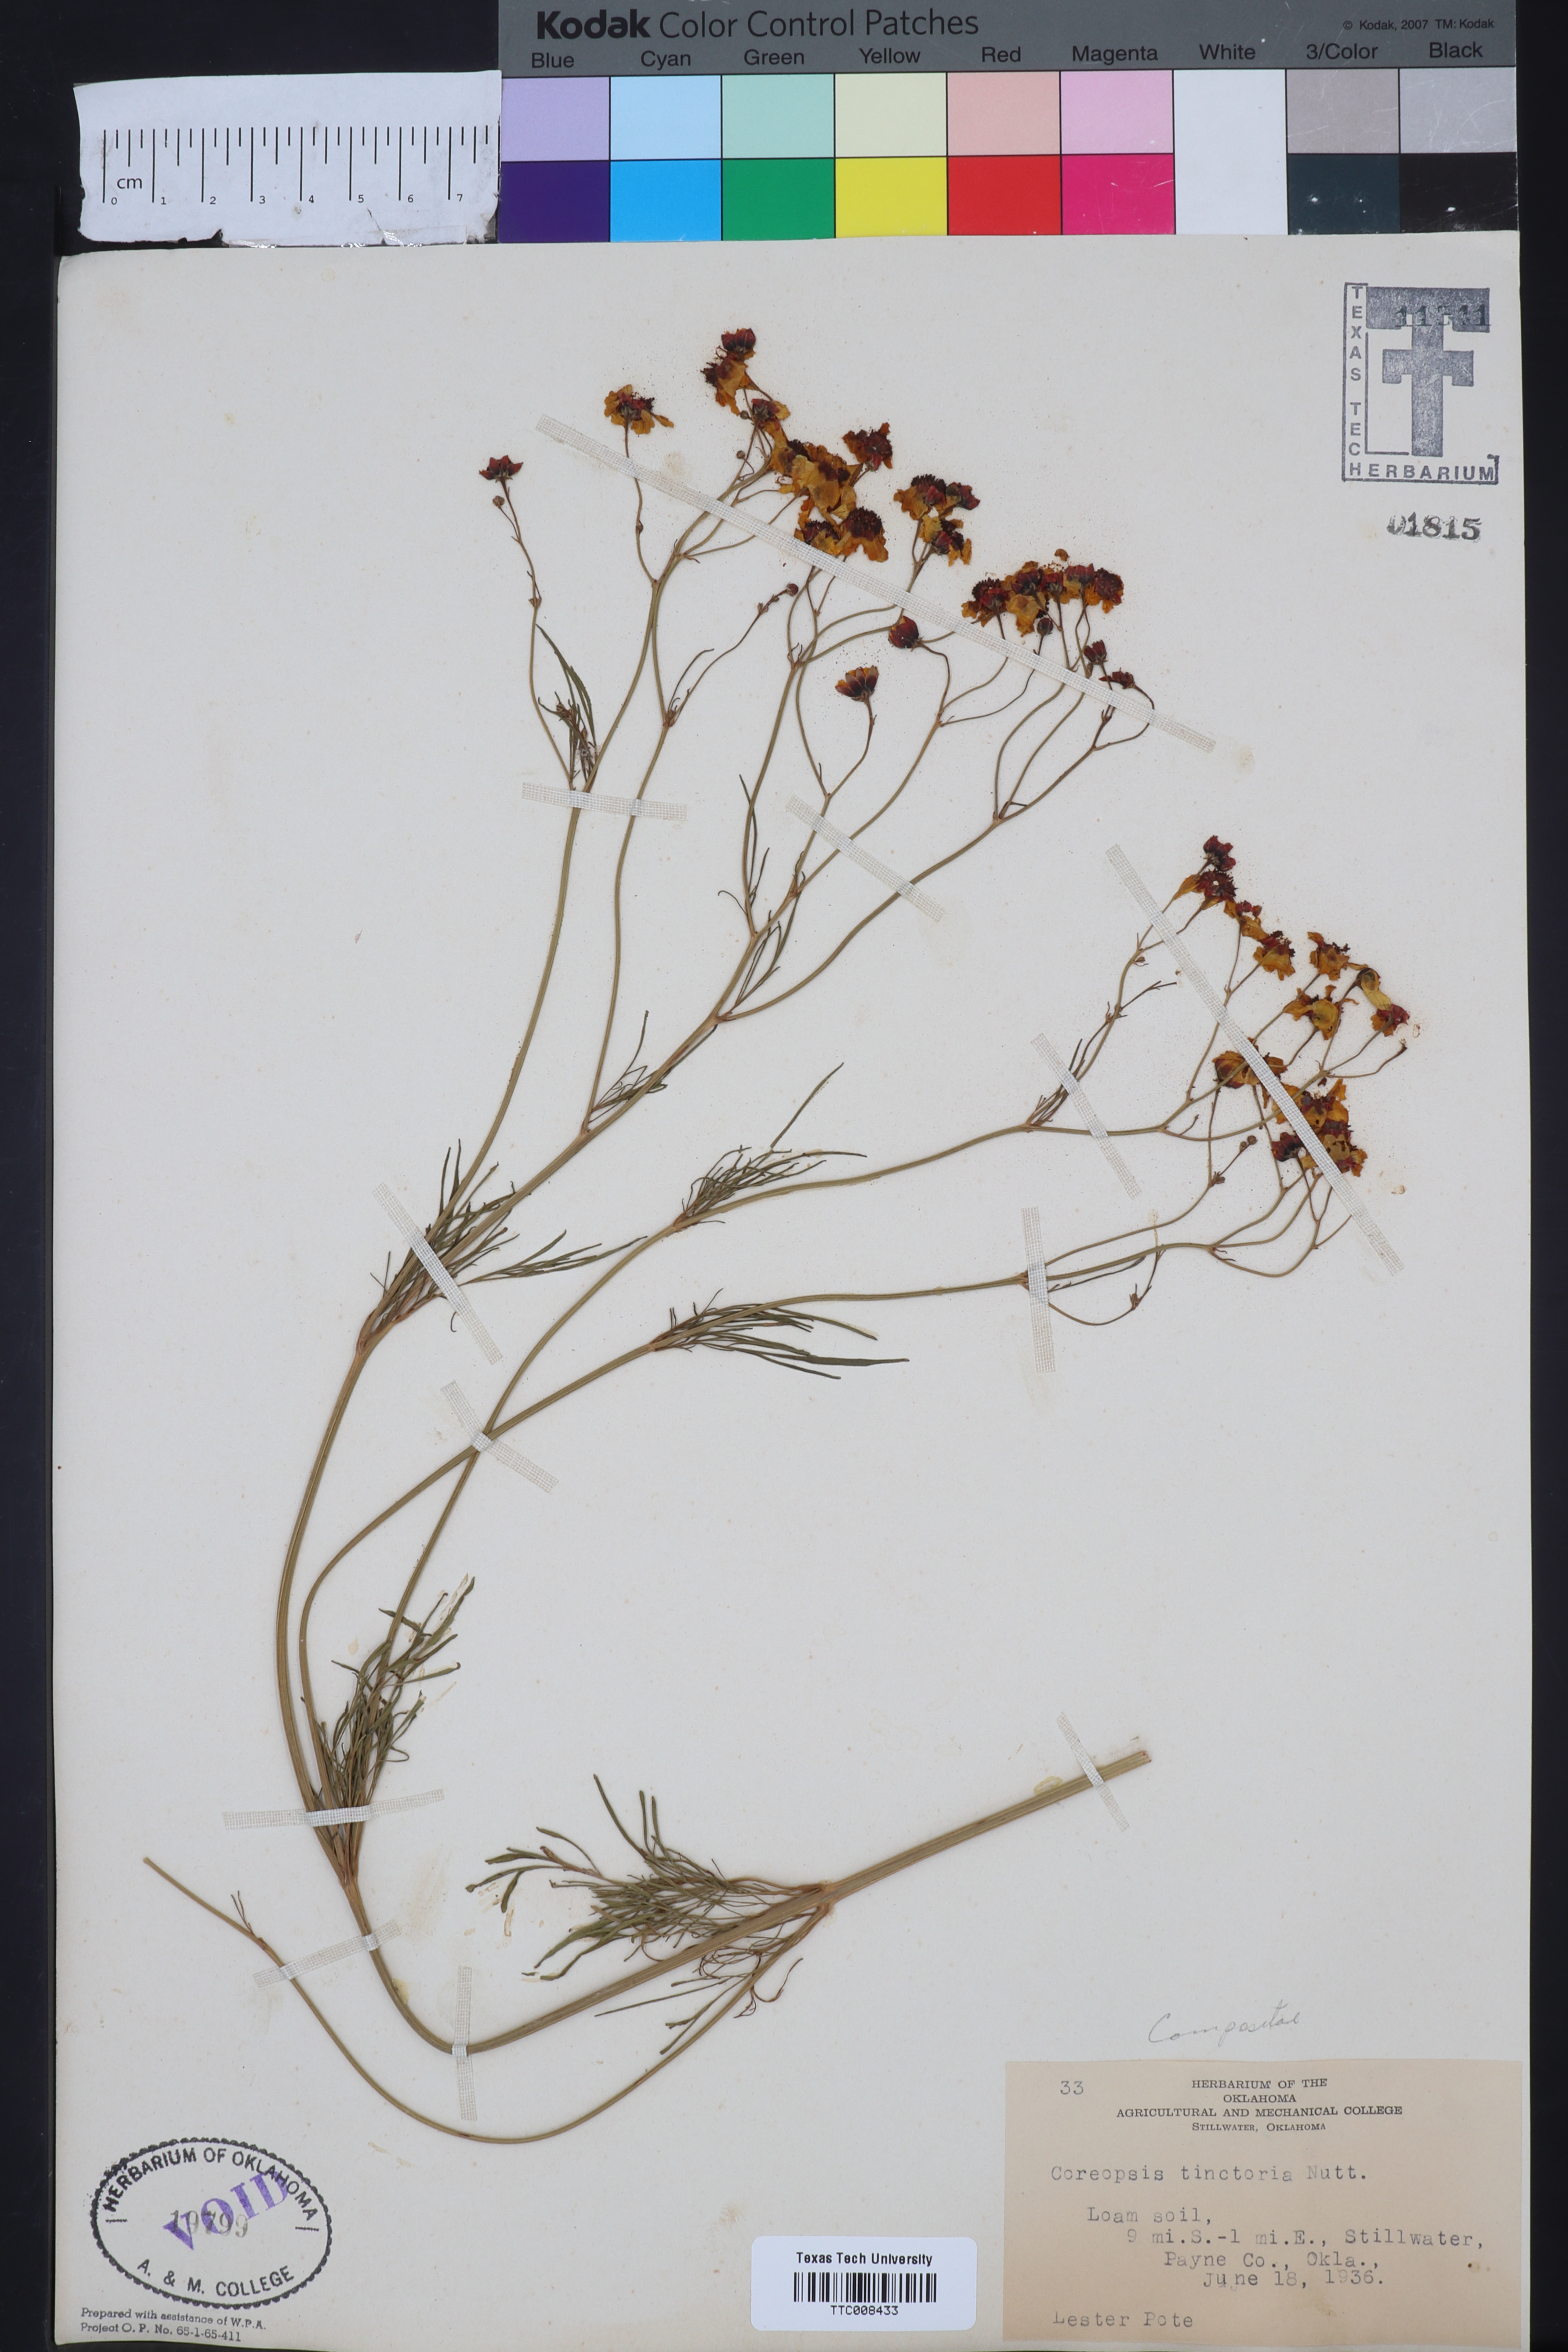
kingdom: Plantae
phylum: Tracheophyta
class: Magnoliopsida
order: Asterales
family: Asteraceae
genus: Coreopsis
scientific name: Coreopsis tinctoria
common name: Garden tickseed
